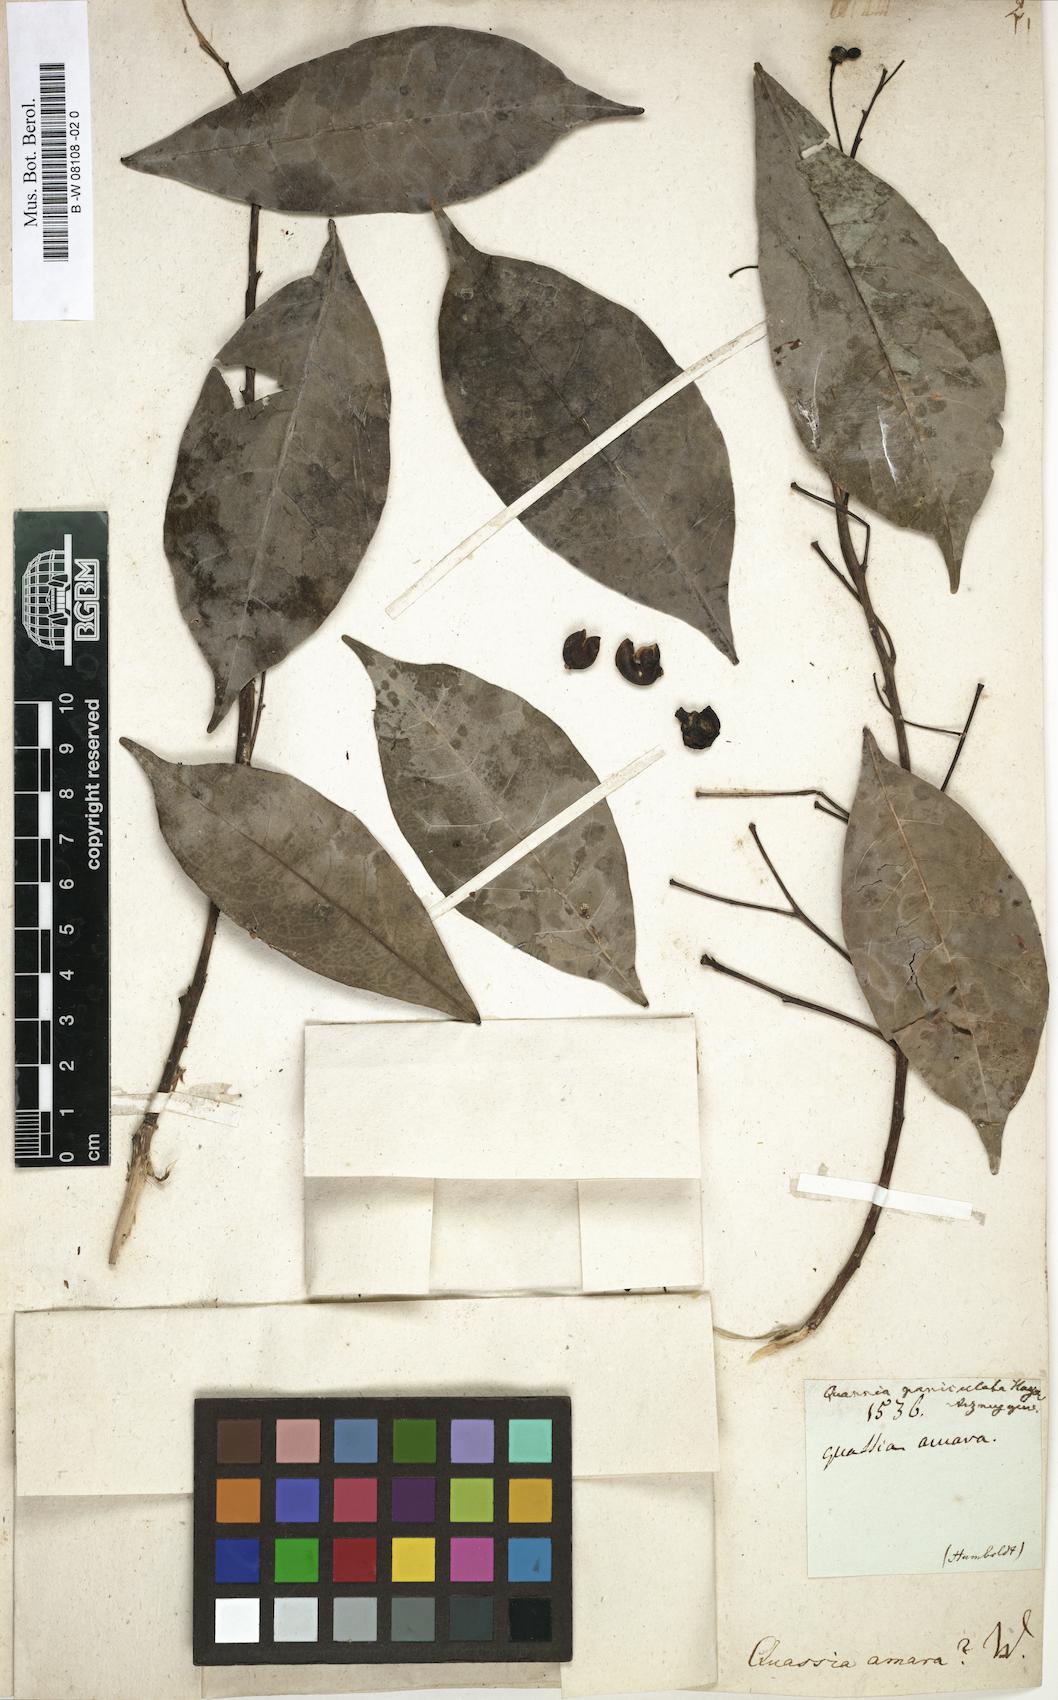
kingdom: Plantae
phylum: Tracheophyta
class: Magnoliopsida
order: Sapindales
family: Simaroubaceae
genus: Quassia
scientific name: Quassia amara
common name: Quassia
